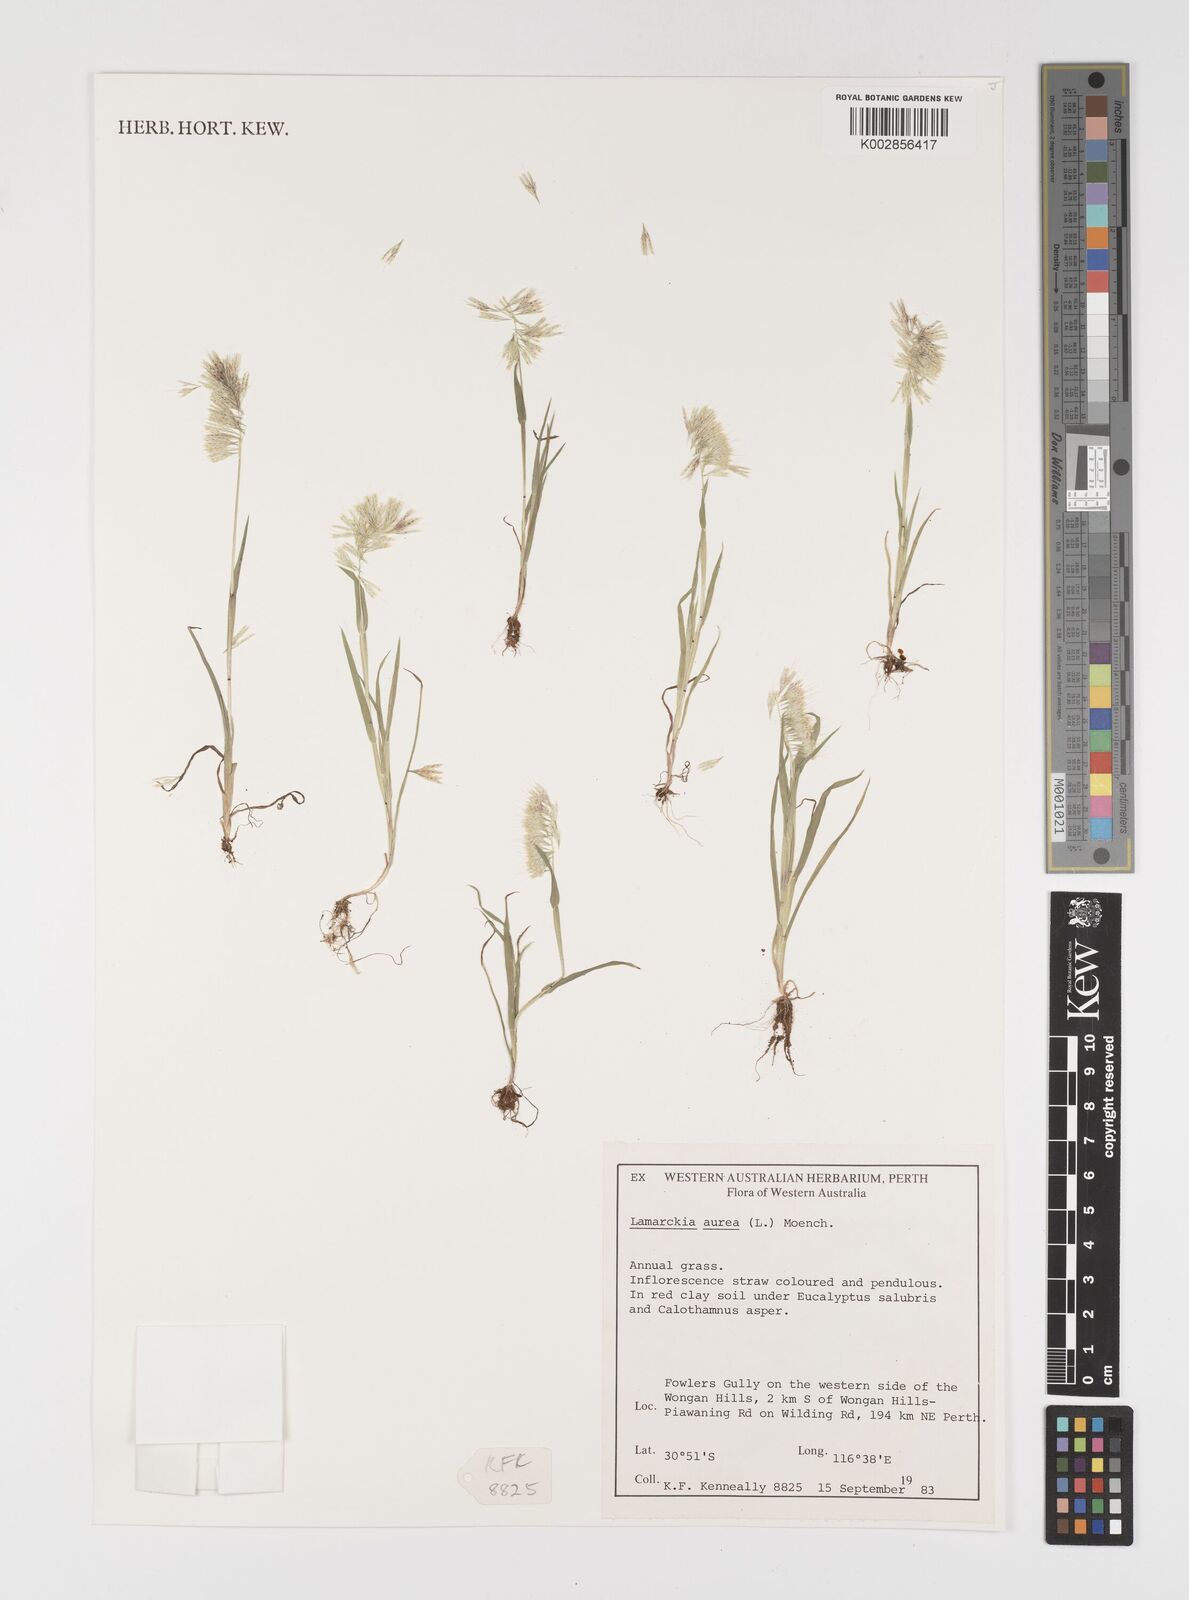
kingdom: Plantae
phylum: Tracheophyta
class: Liliopsida
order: Poales
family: Poaceae
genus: Lamarckia
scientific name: Lamarckia aurea
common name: Golden dog's-tail
